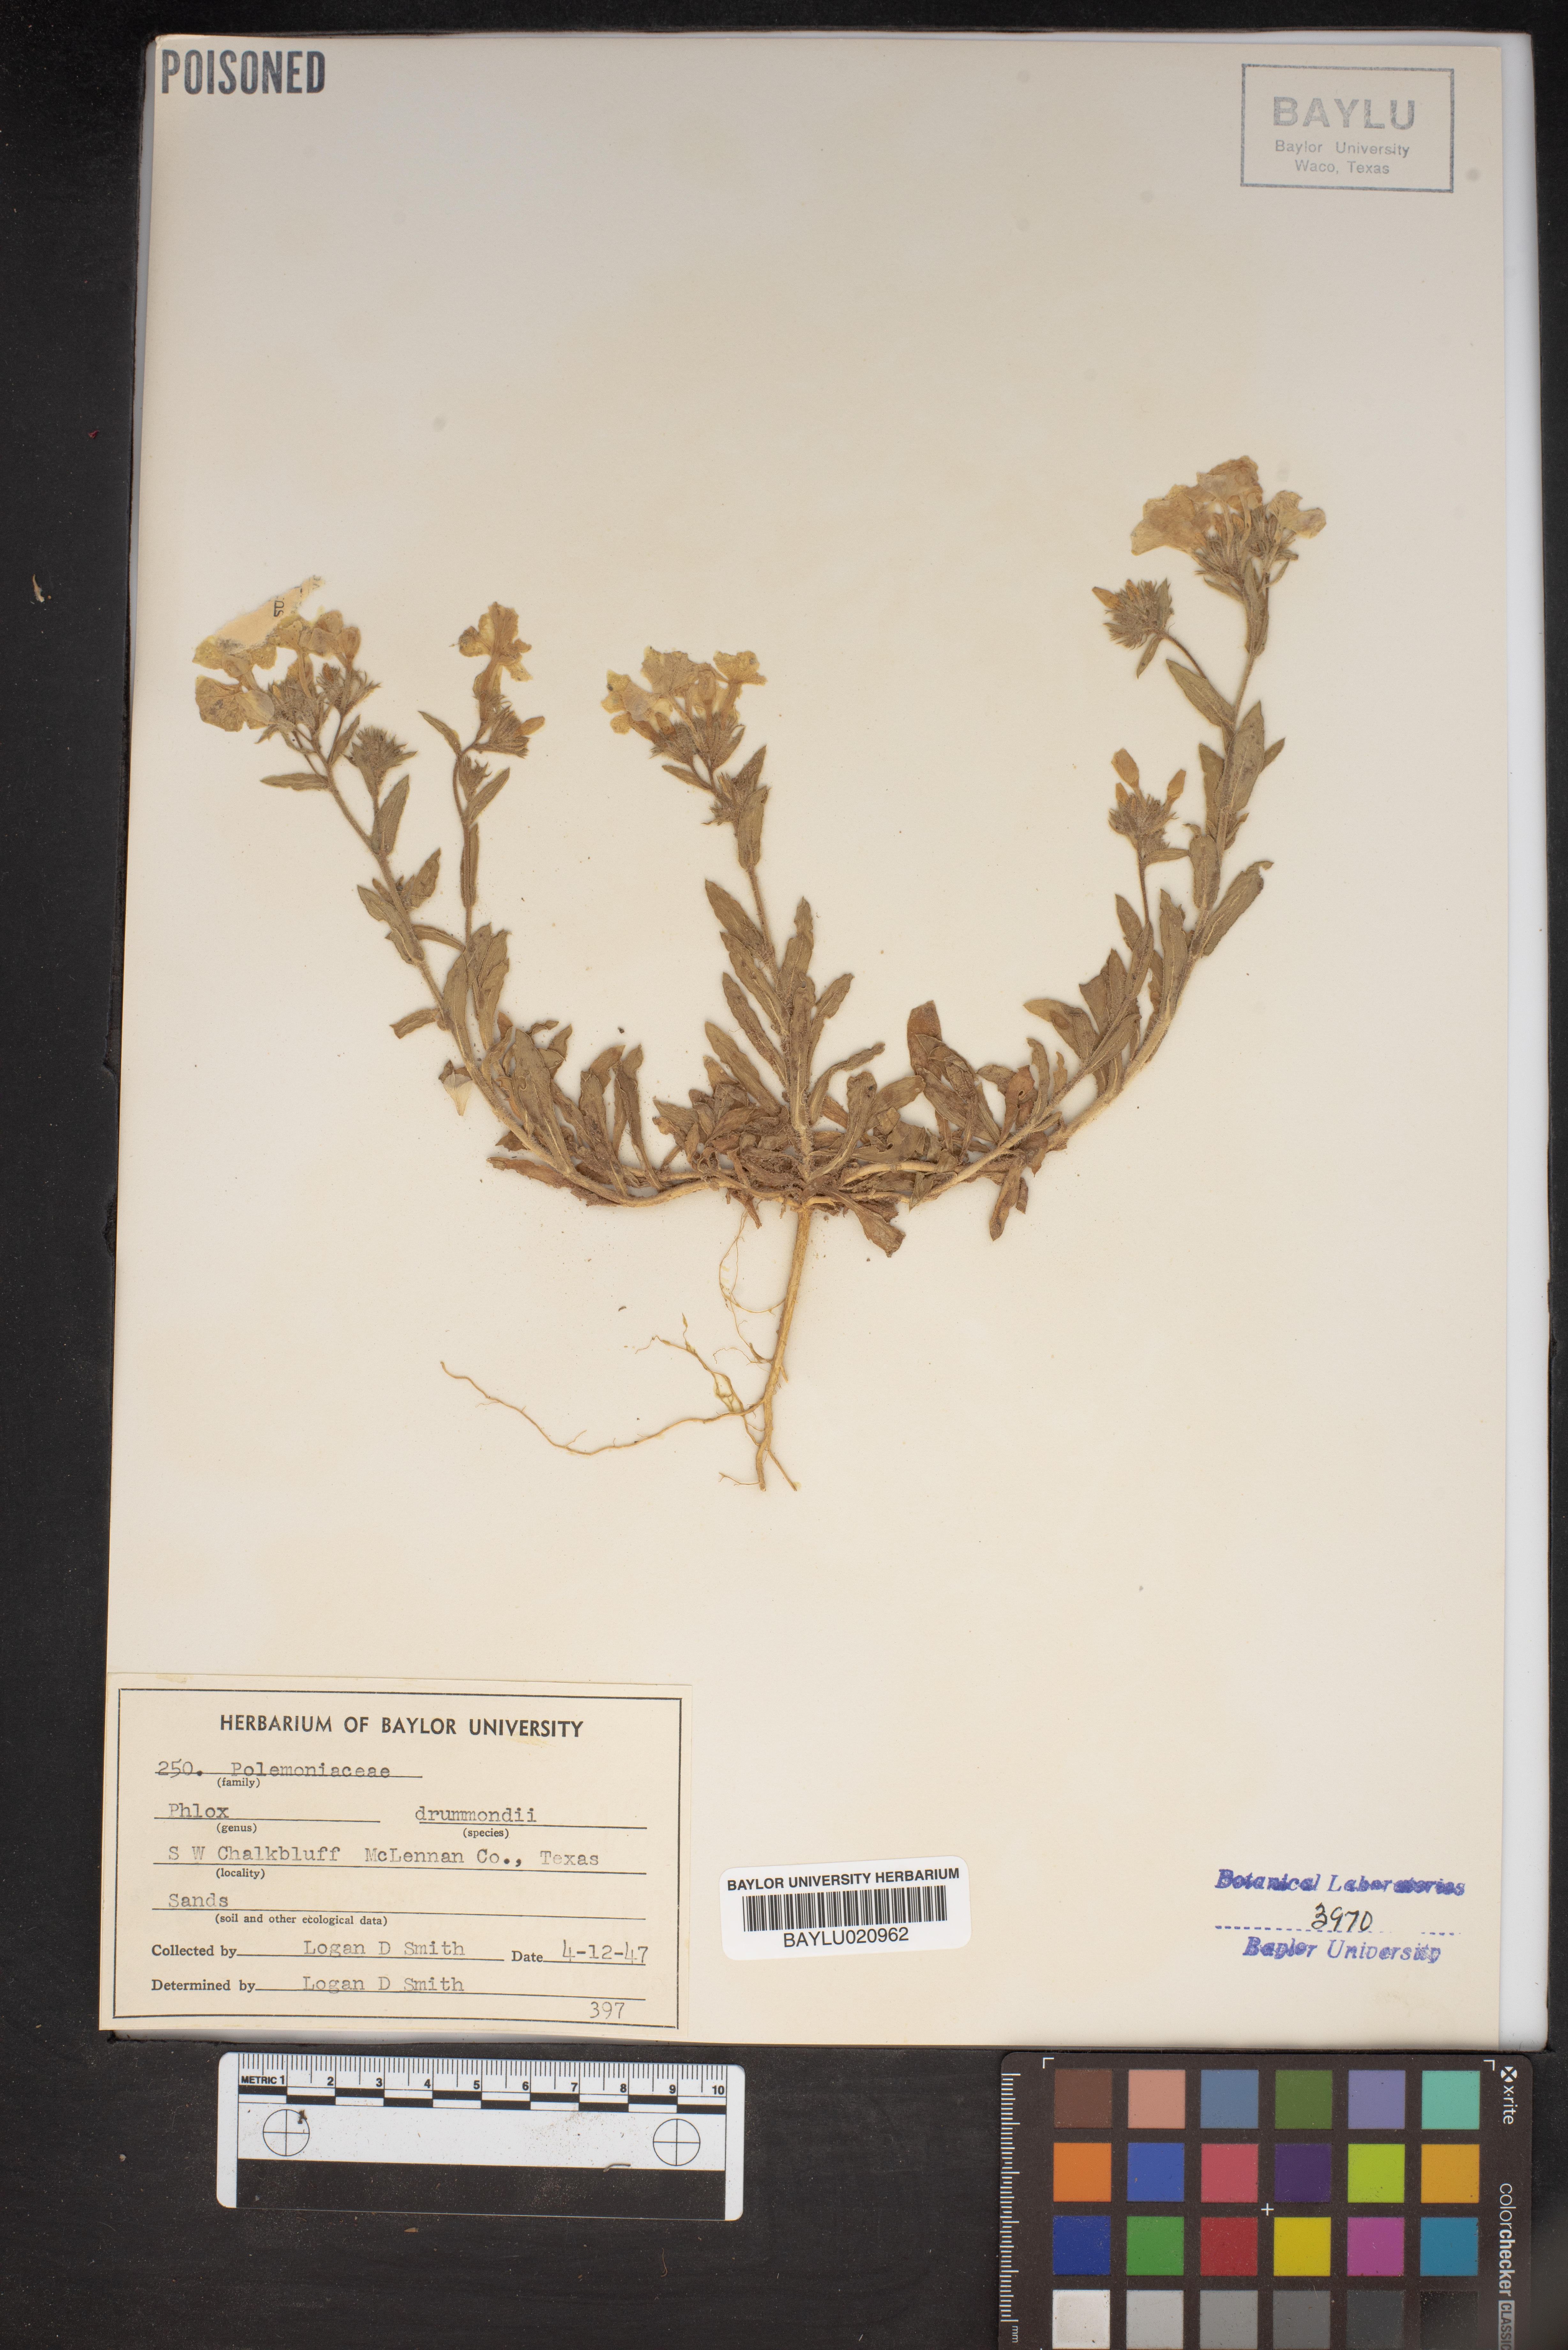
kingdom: Plantae
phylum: Tracheophyta
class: Magnoliopsida
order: Ericales
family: Polemoniaceae
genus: Phlox
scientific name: Phlox drummondii
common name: Drummond's phlox
